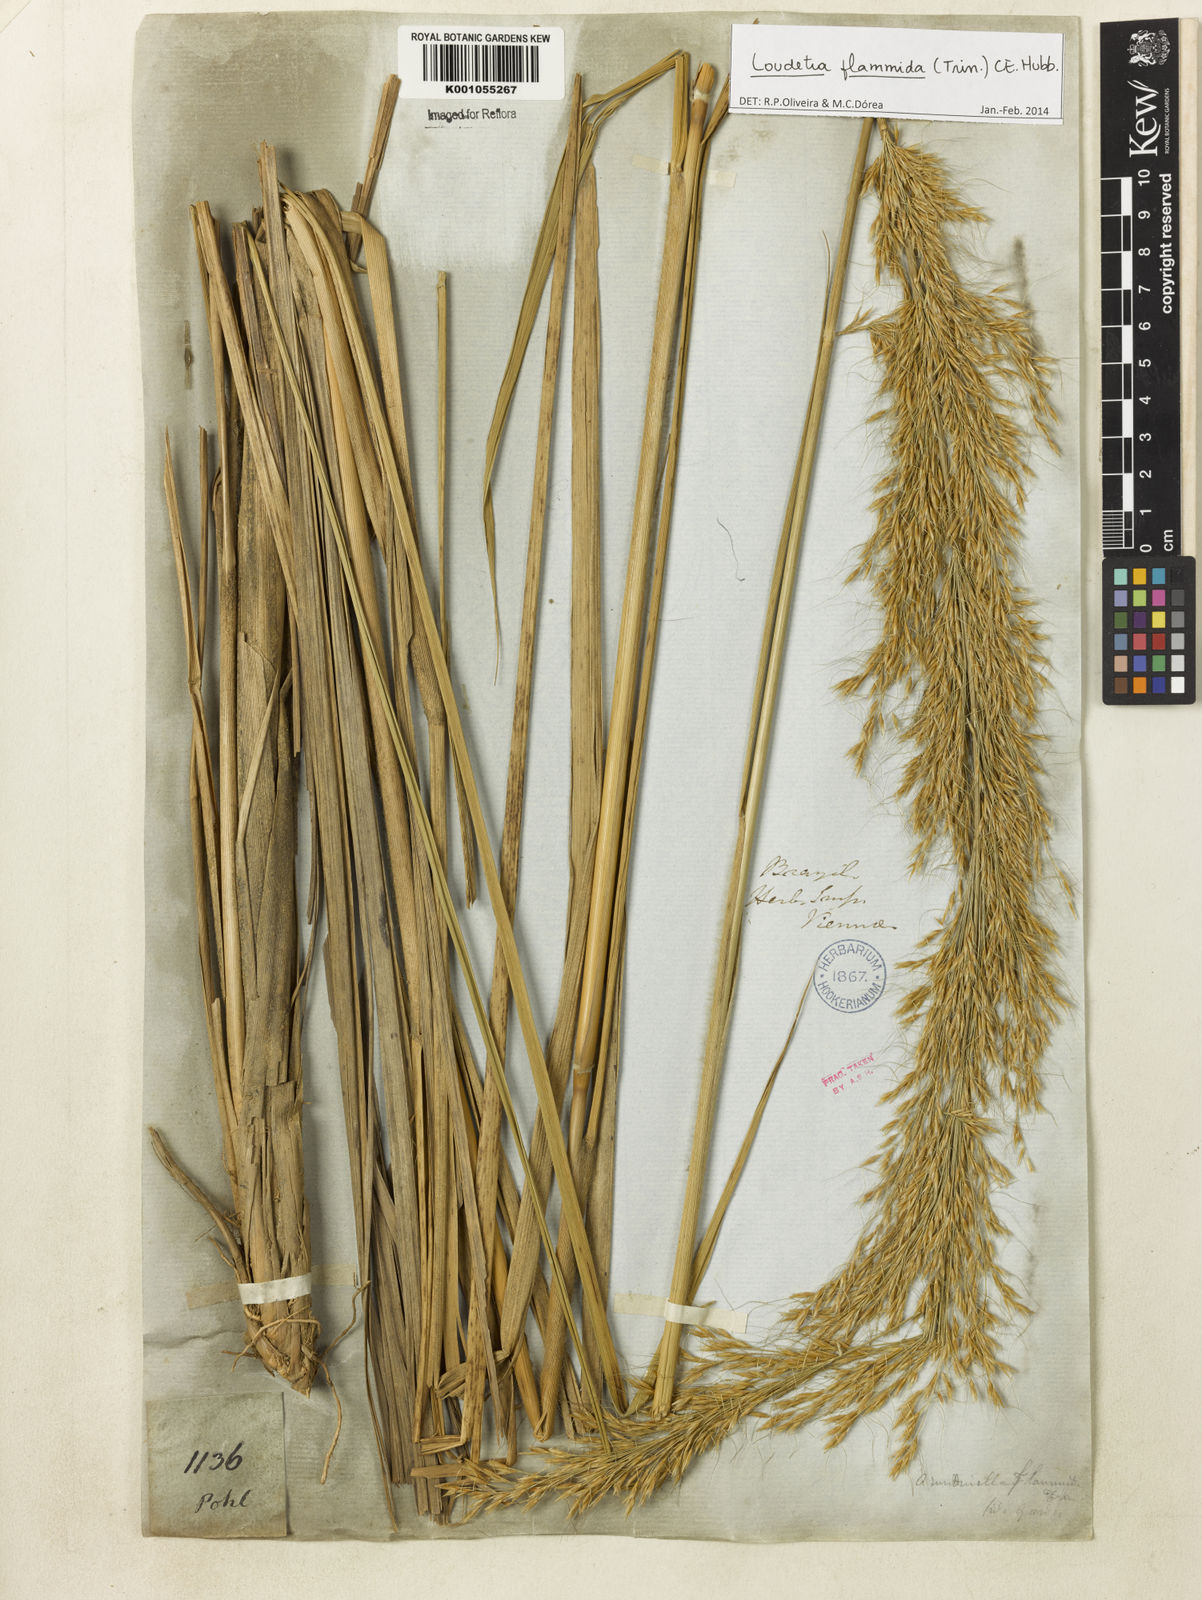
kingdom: Plantae
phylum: Tracheophyta
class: Liliopsida
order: Poales
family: Poaceae
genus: Loudetia
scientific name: Loudetia flammida
